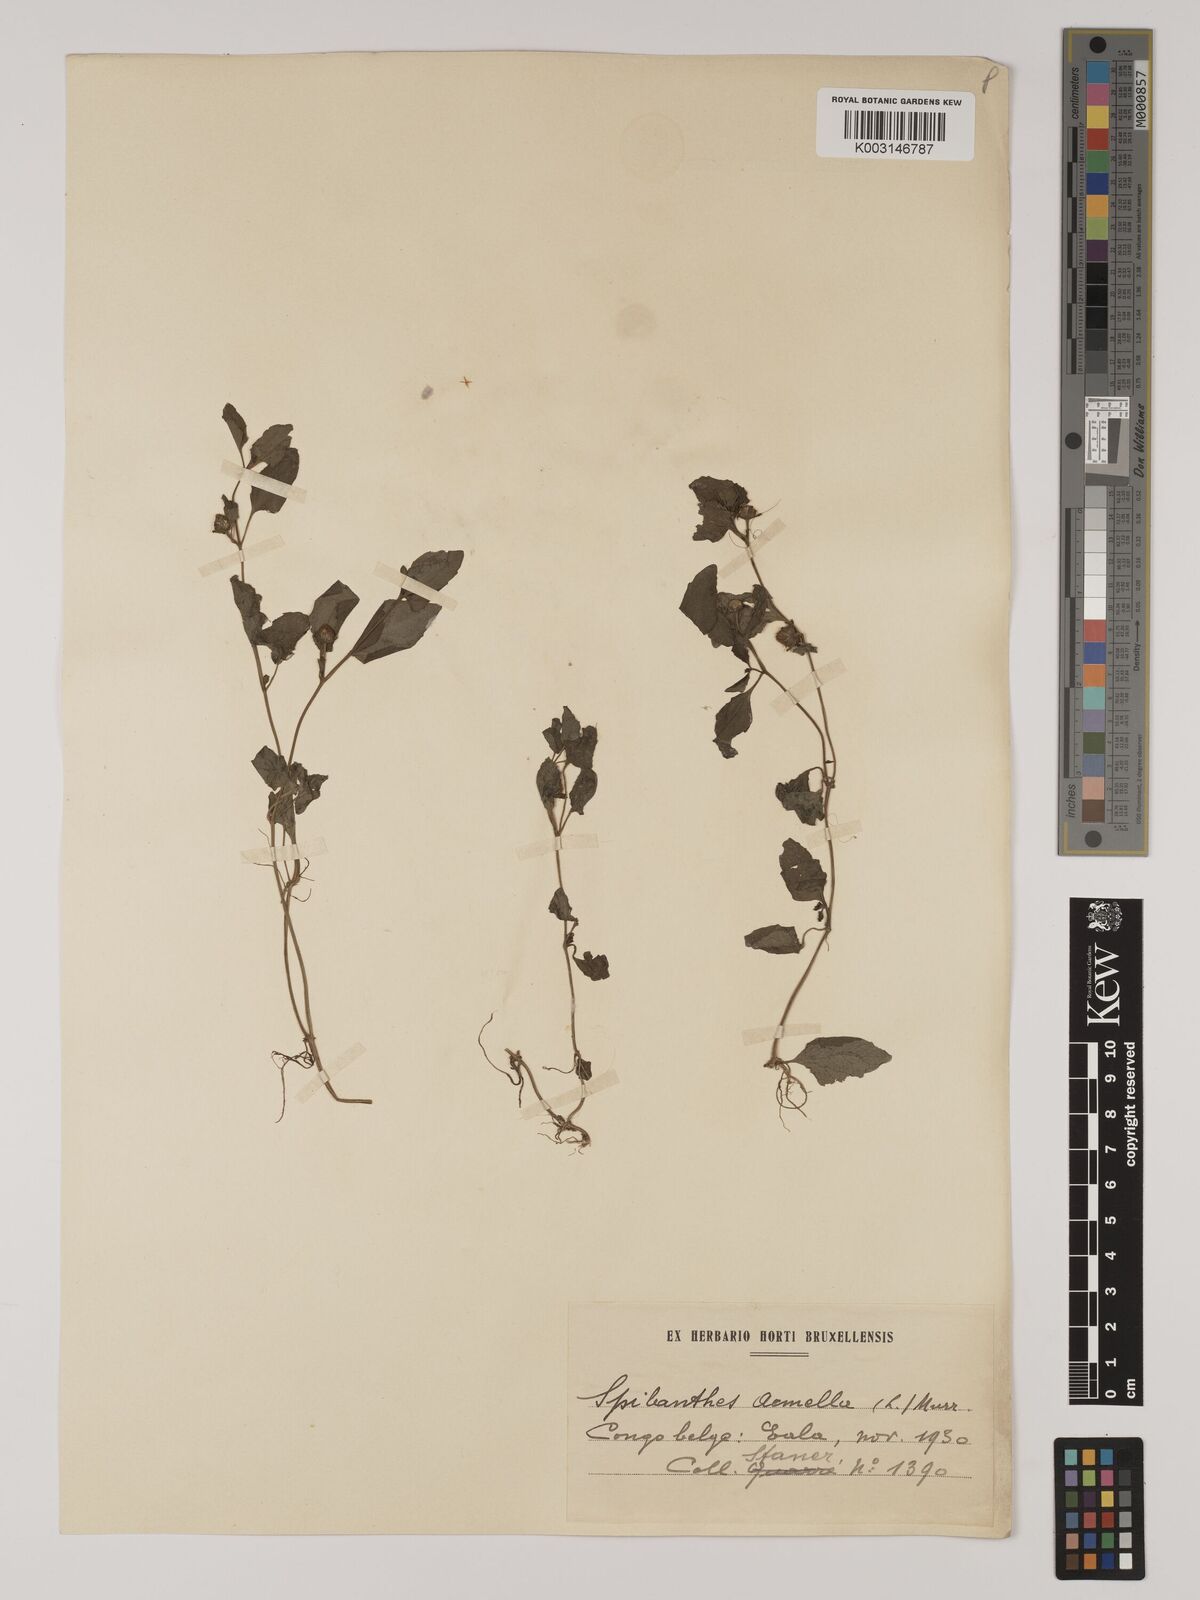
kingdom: Plantae
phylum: Tracheophyta
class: Magnoliopsida
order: Asterales
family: Asteraceae
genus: Acmella
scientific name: Acmella caulirhiza
